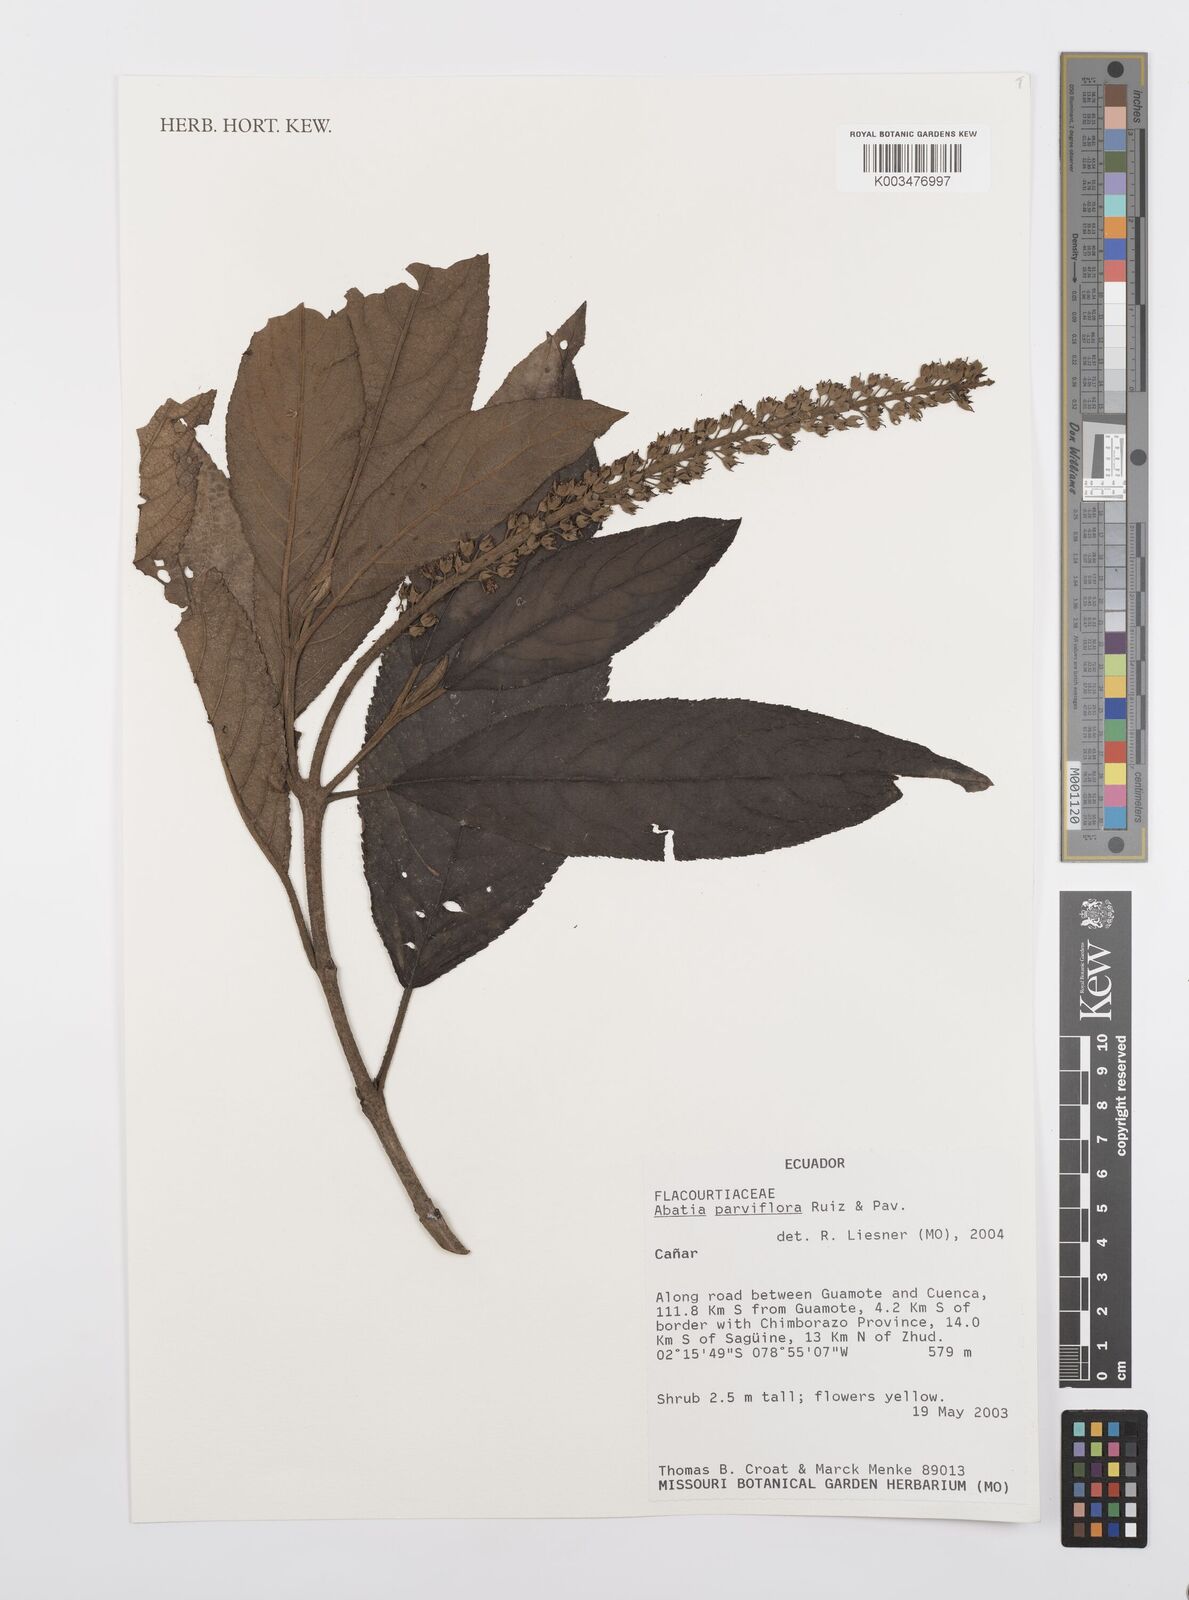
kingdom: Plantae
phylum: Tracheophyta
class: Magnoliopsida
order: Malpighiales
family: Salicaceae
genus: Abatia
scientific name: Abatia parviflora
